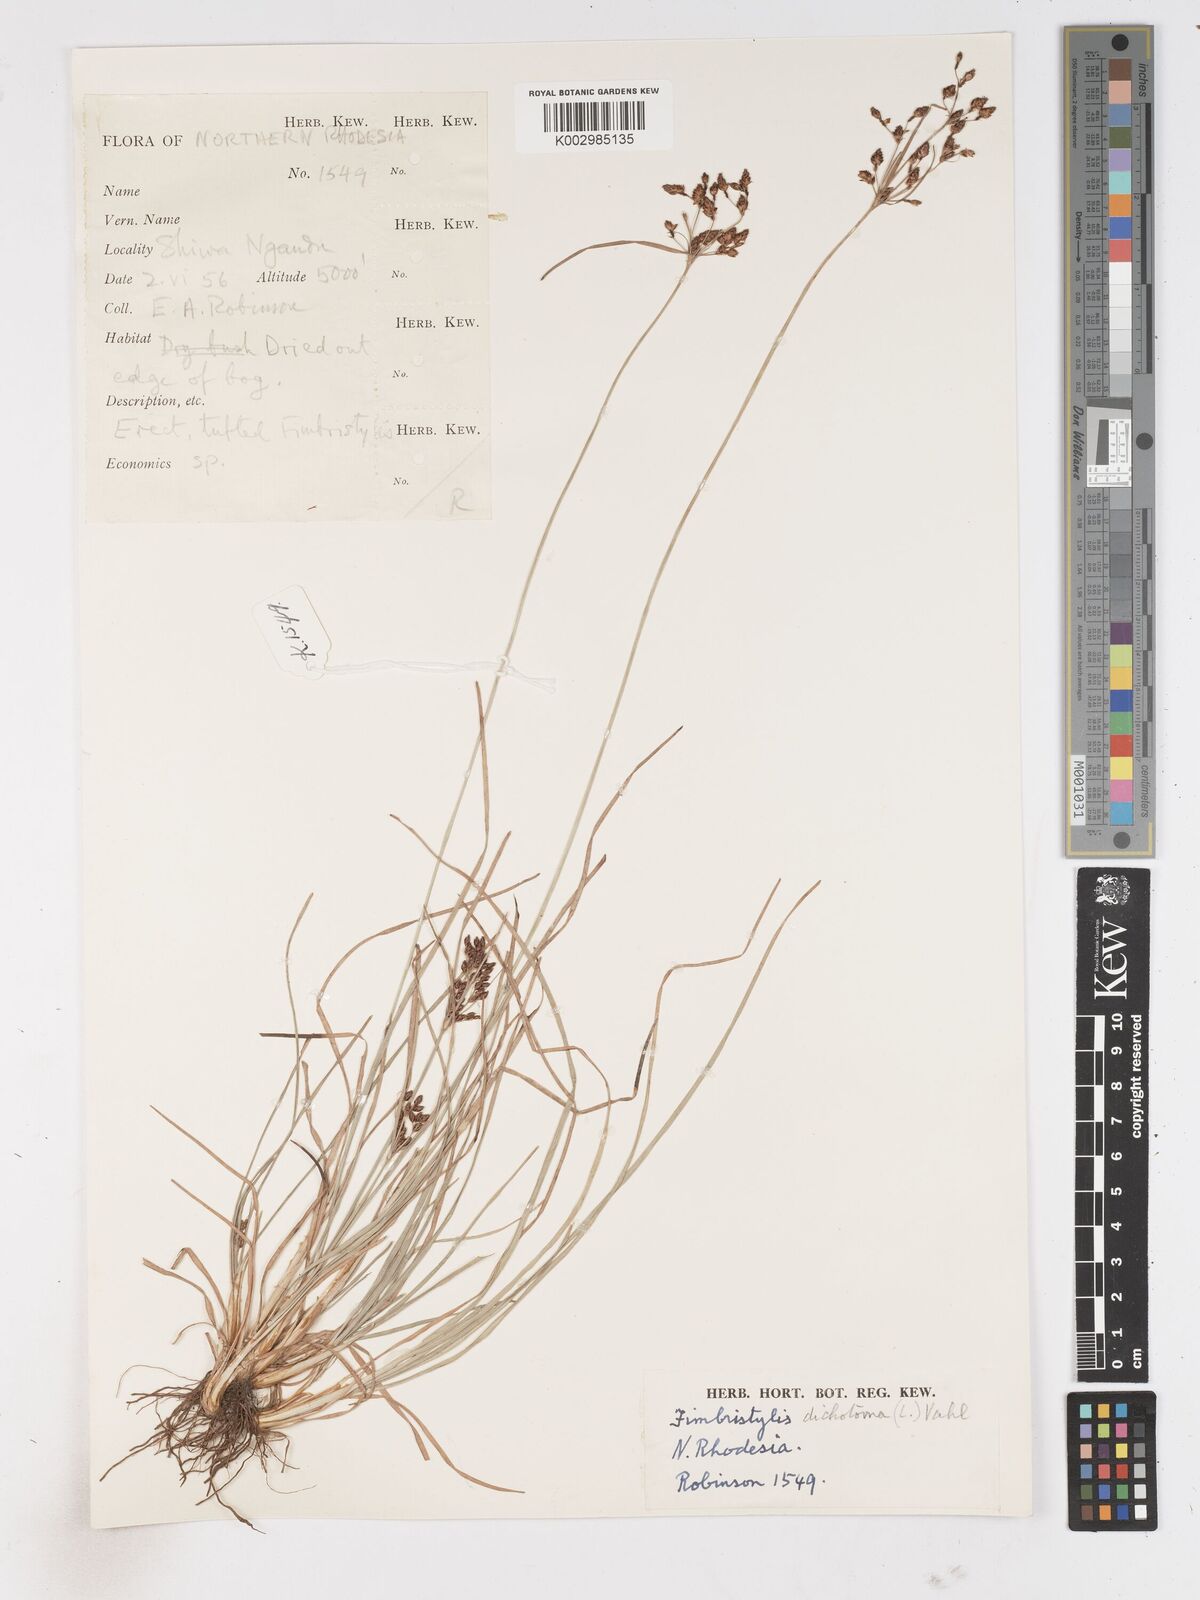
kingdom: Plantae
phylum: Tracheophyta
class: Liliopsida
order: Poales
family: Cyperaceae
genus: Fimbristylis
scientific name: Fimbristylis dichotoma
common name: Forked fimbry
